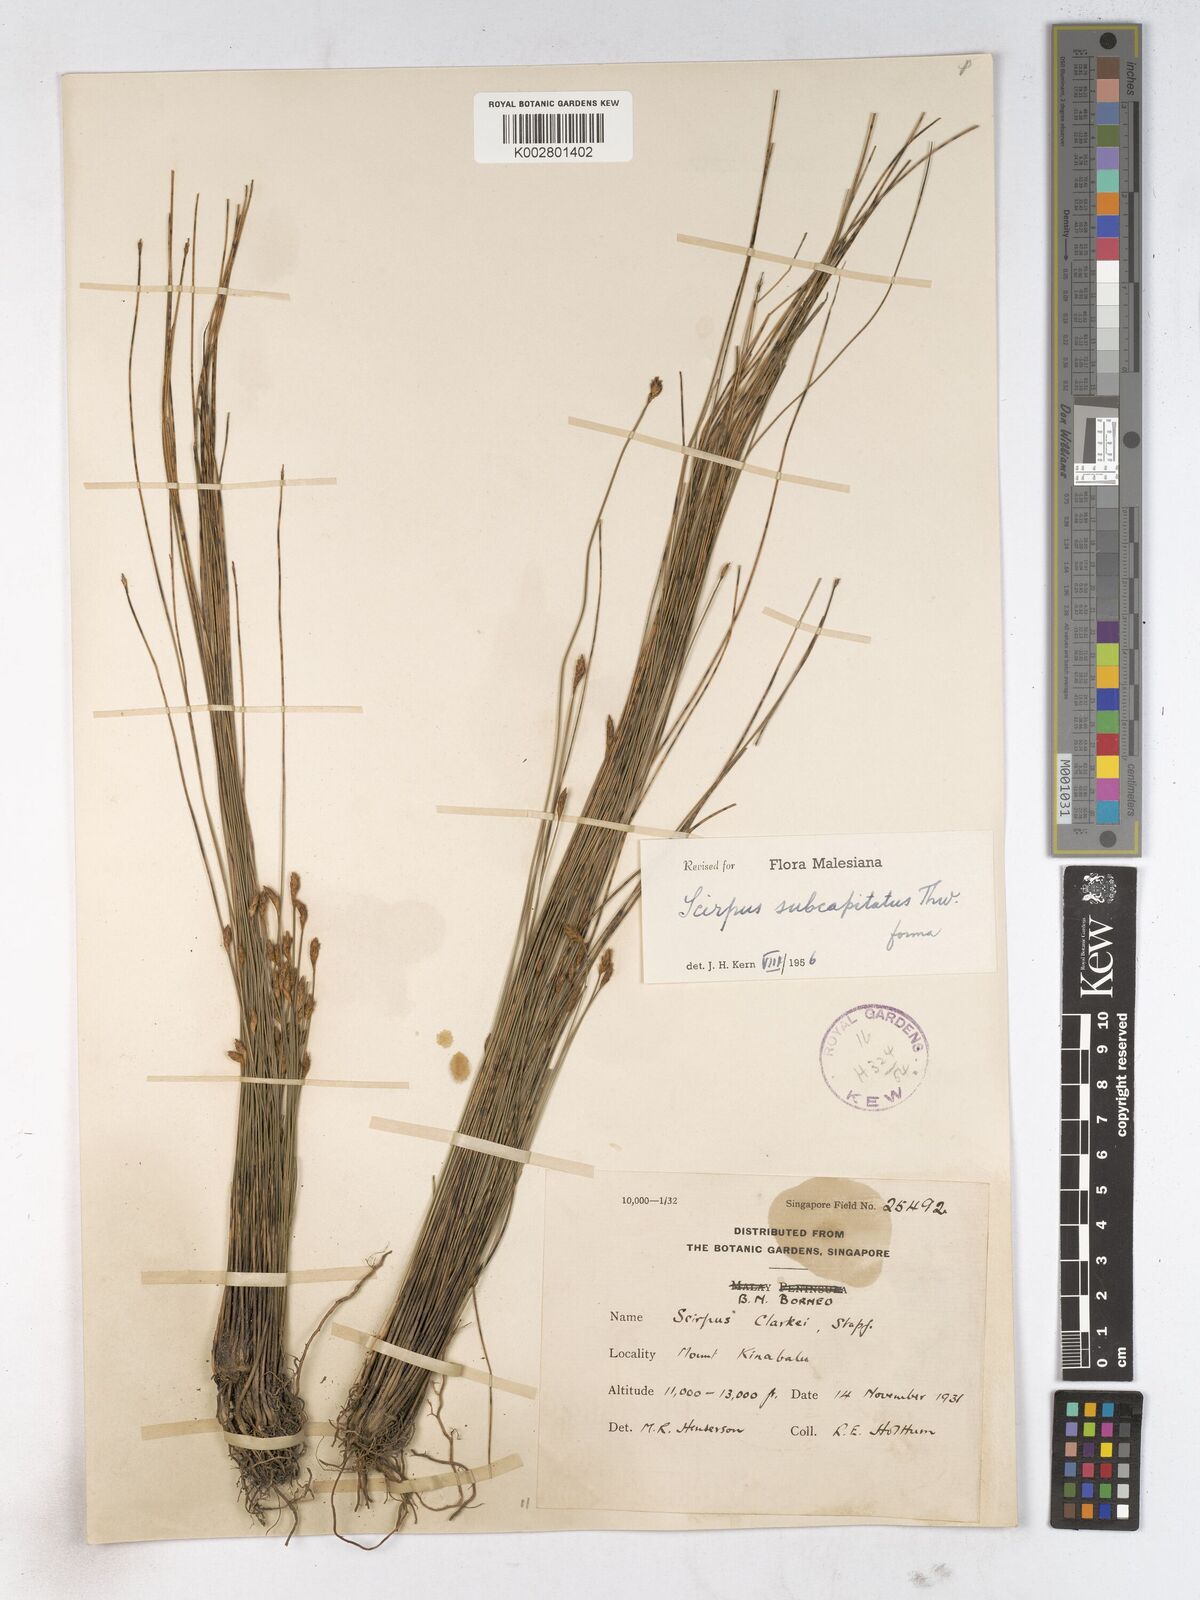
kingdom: Plantae
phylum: Tracheophyta
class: Liliopsida
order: Poales
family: Cyperaceae
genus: Trichophorum
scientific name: Trichophorum subcapitatum
